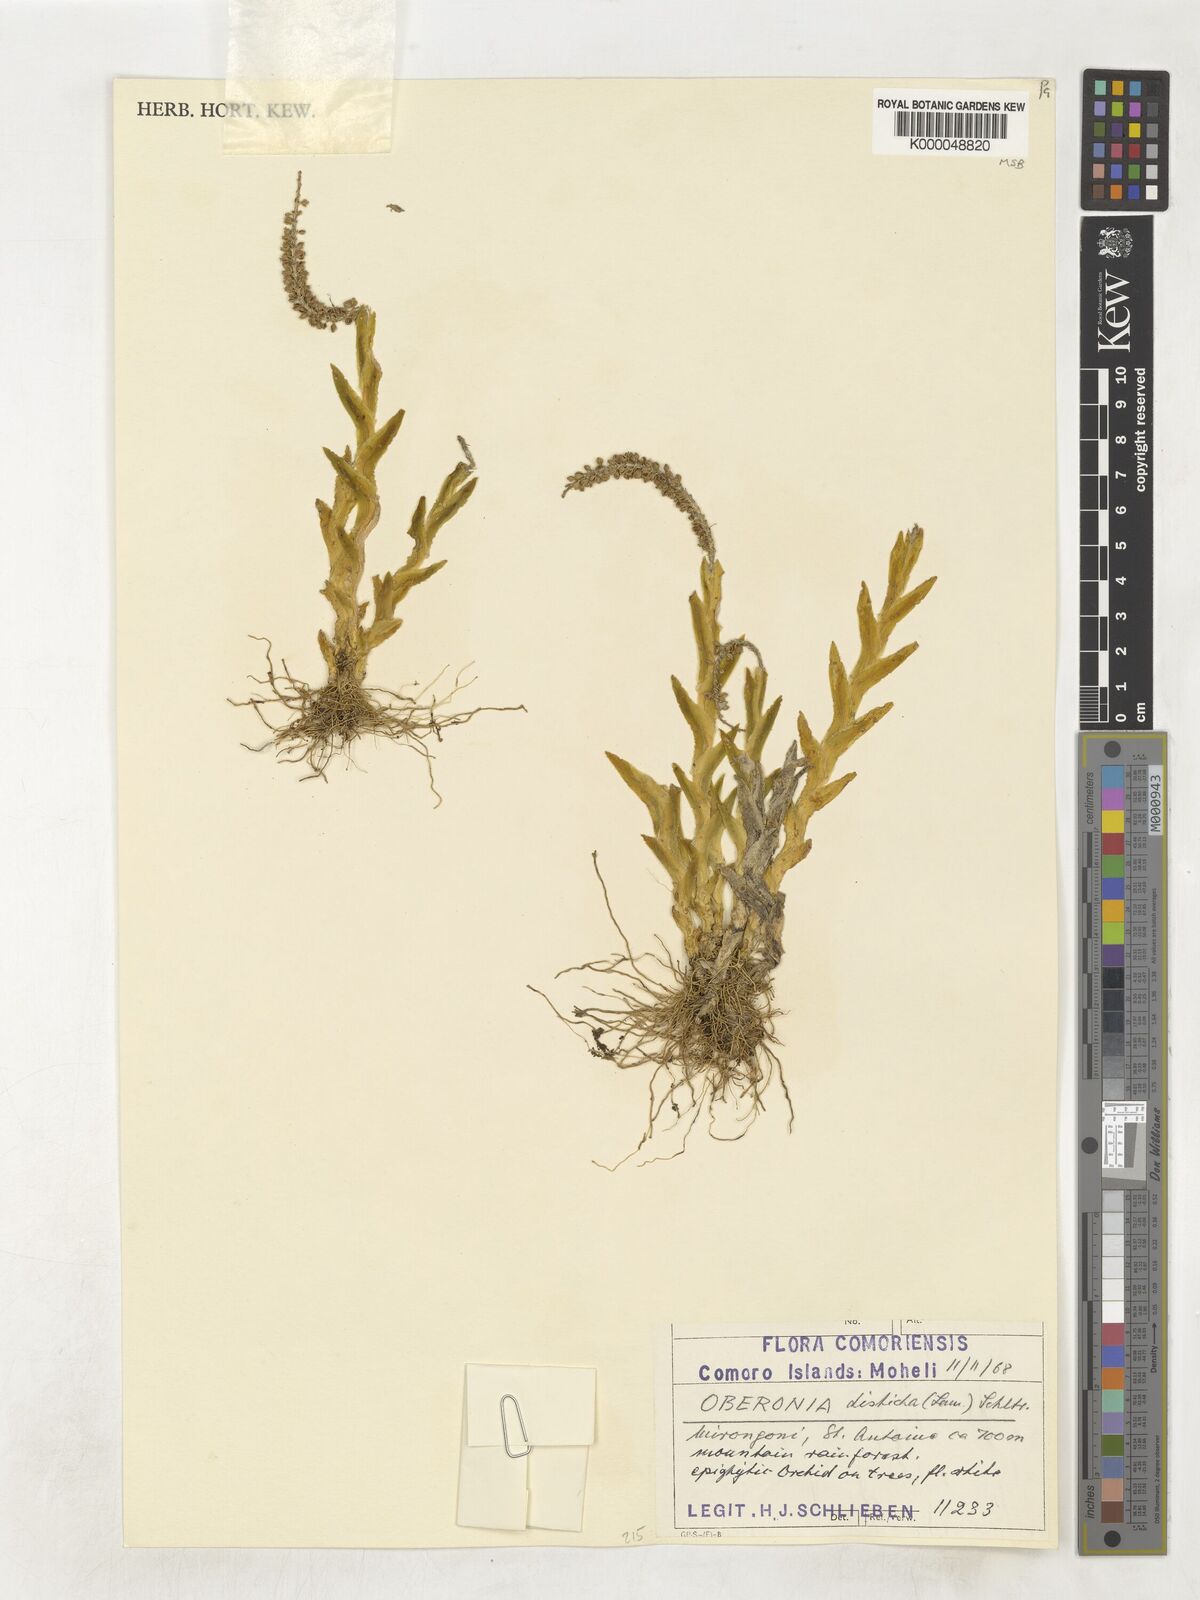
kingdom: Plantae
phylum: Tracheophyta
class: Liliopsida
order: Asparagales
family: Orchidaceae
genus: Oberonia
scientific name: Oberonia disticha
